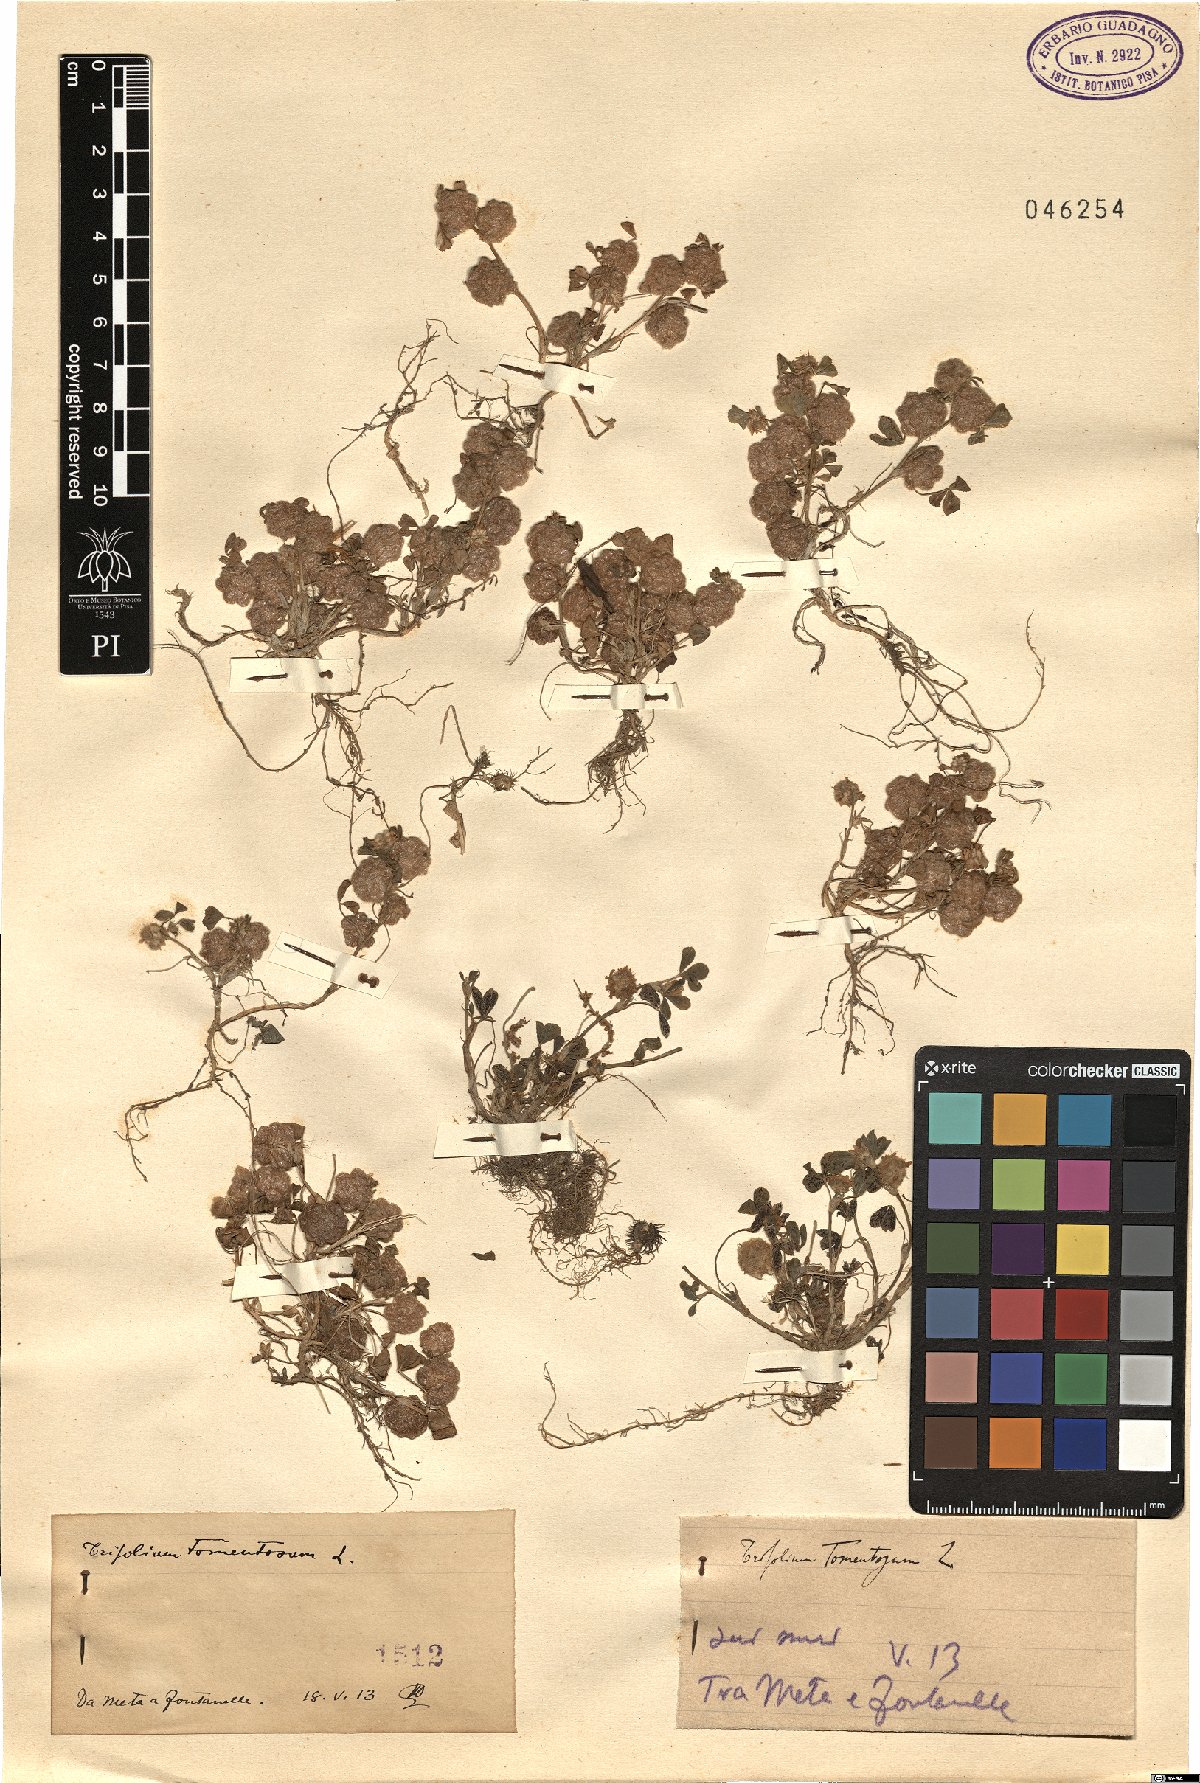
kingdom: Plantae
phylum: Tracheophyta
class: Magnoliopsida
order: Fabales
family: Fabaceae
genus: Trifolium
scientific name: Trifolium tomentosum
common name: Woolly clover
